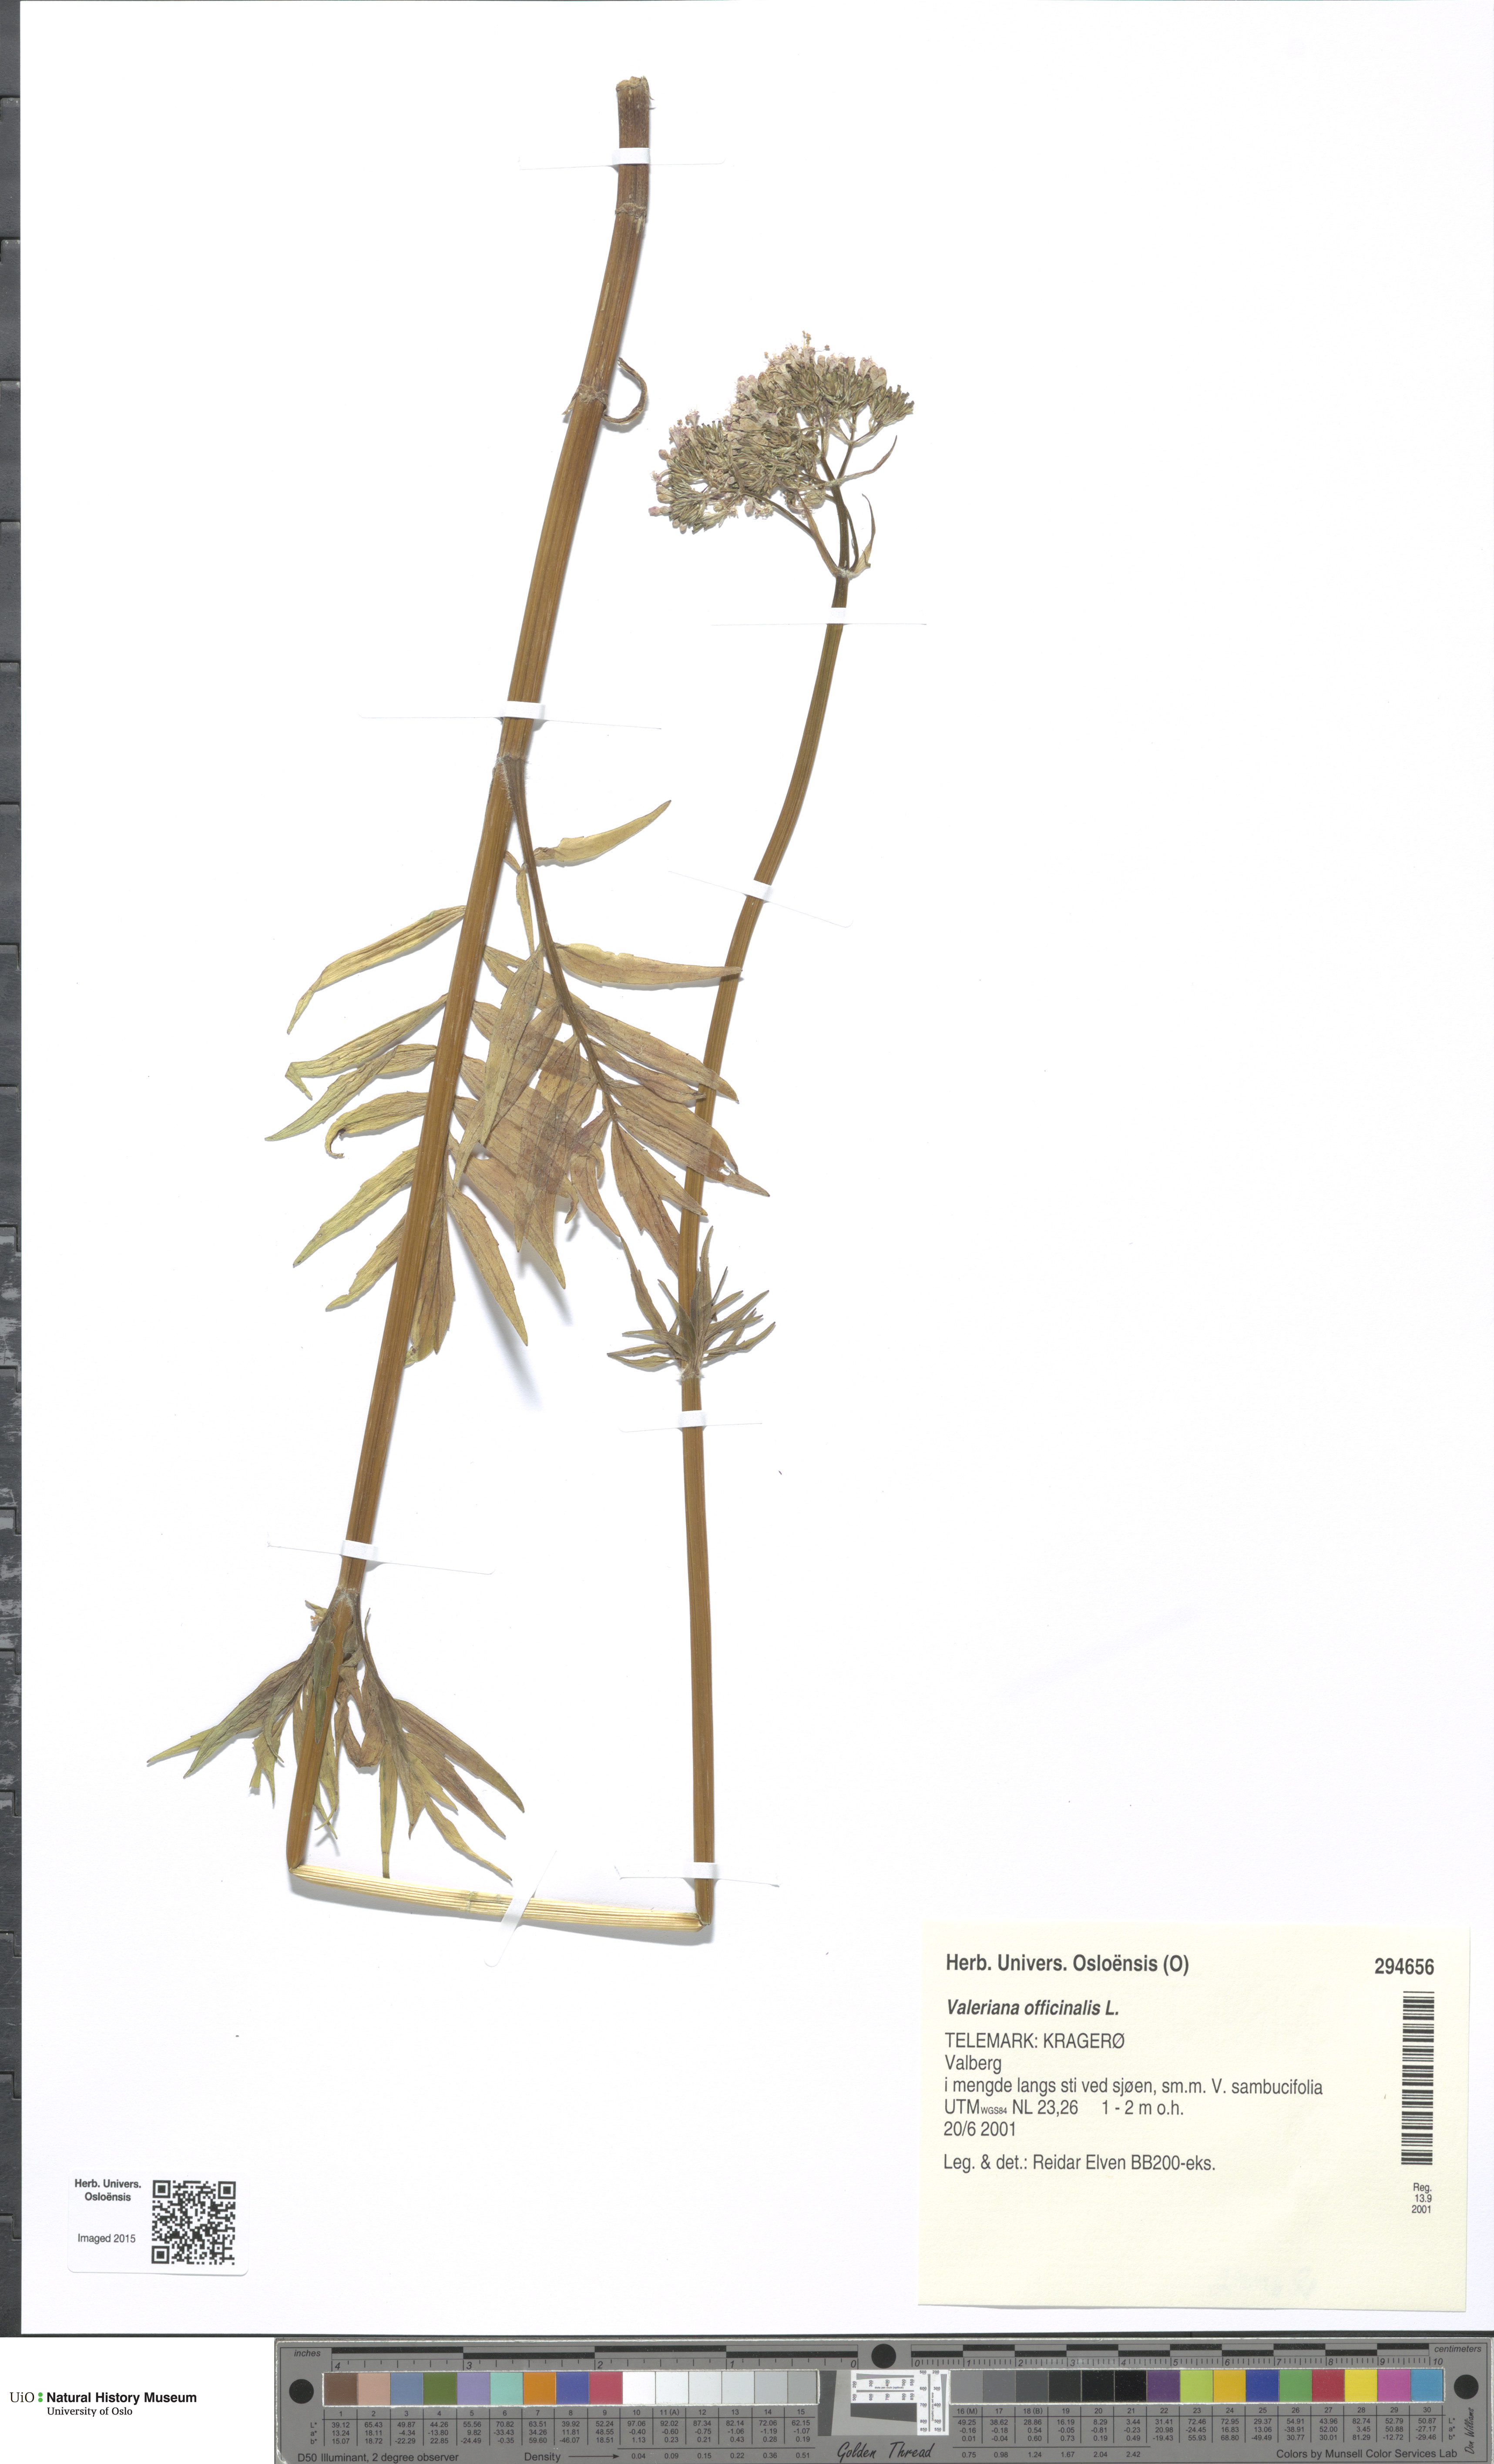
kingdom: Plantae
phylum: Tracheophyta
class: Magnoliopsida
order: Dipsacales
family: Caprifoliaceae
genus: Valeriana
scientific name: Valeriana officinalis
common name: Common valerian
